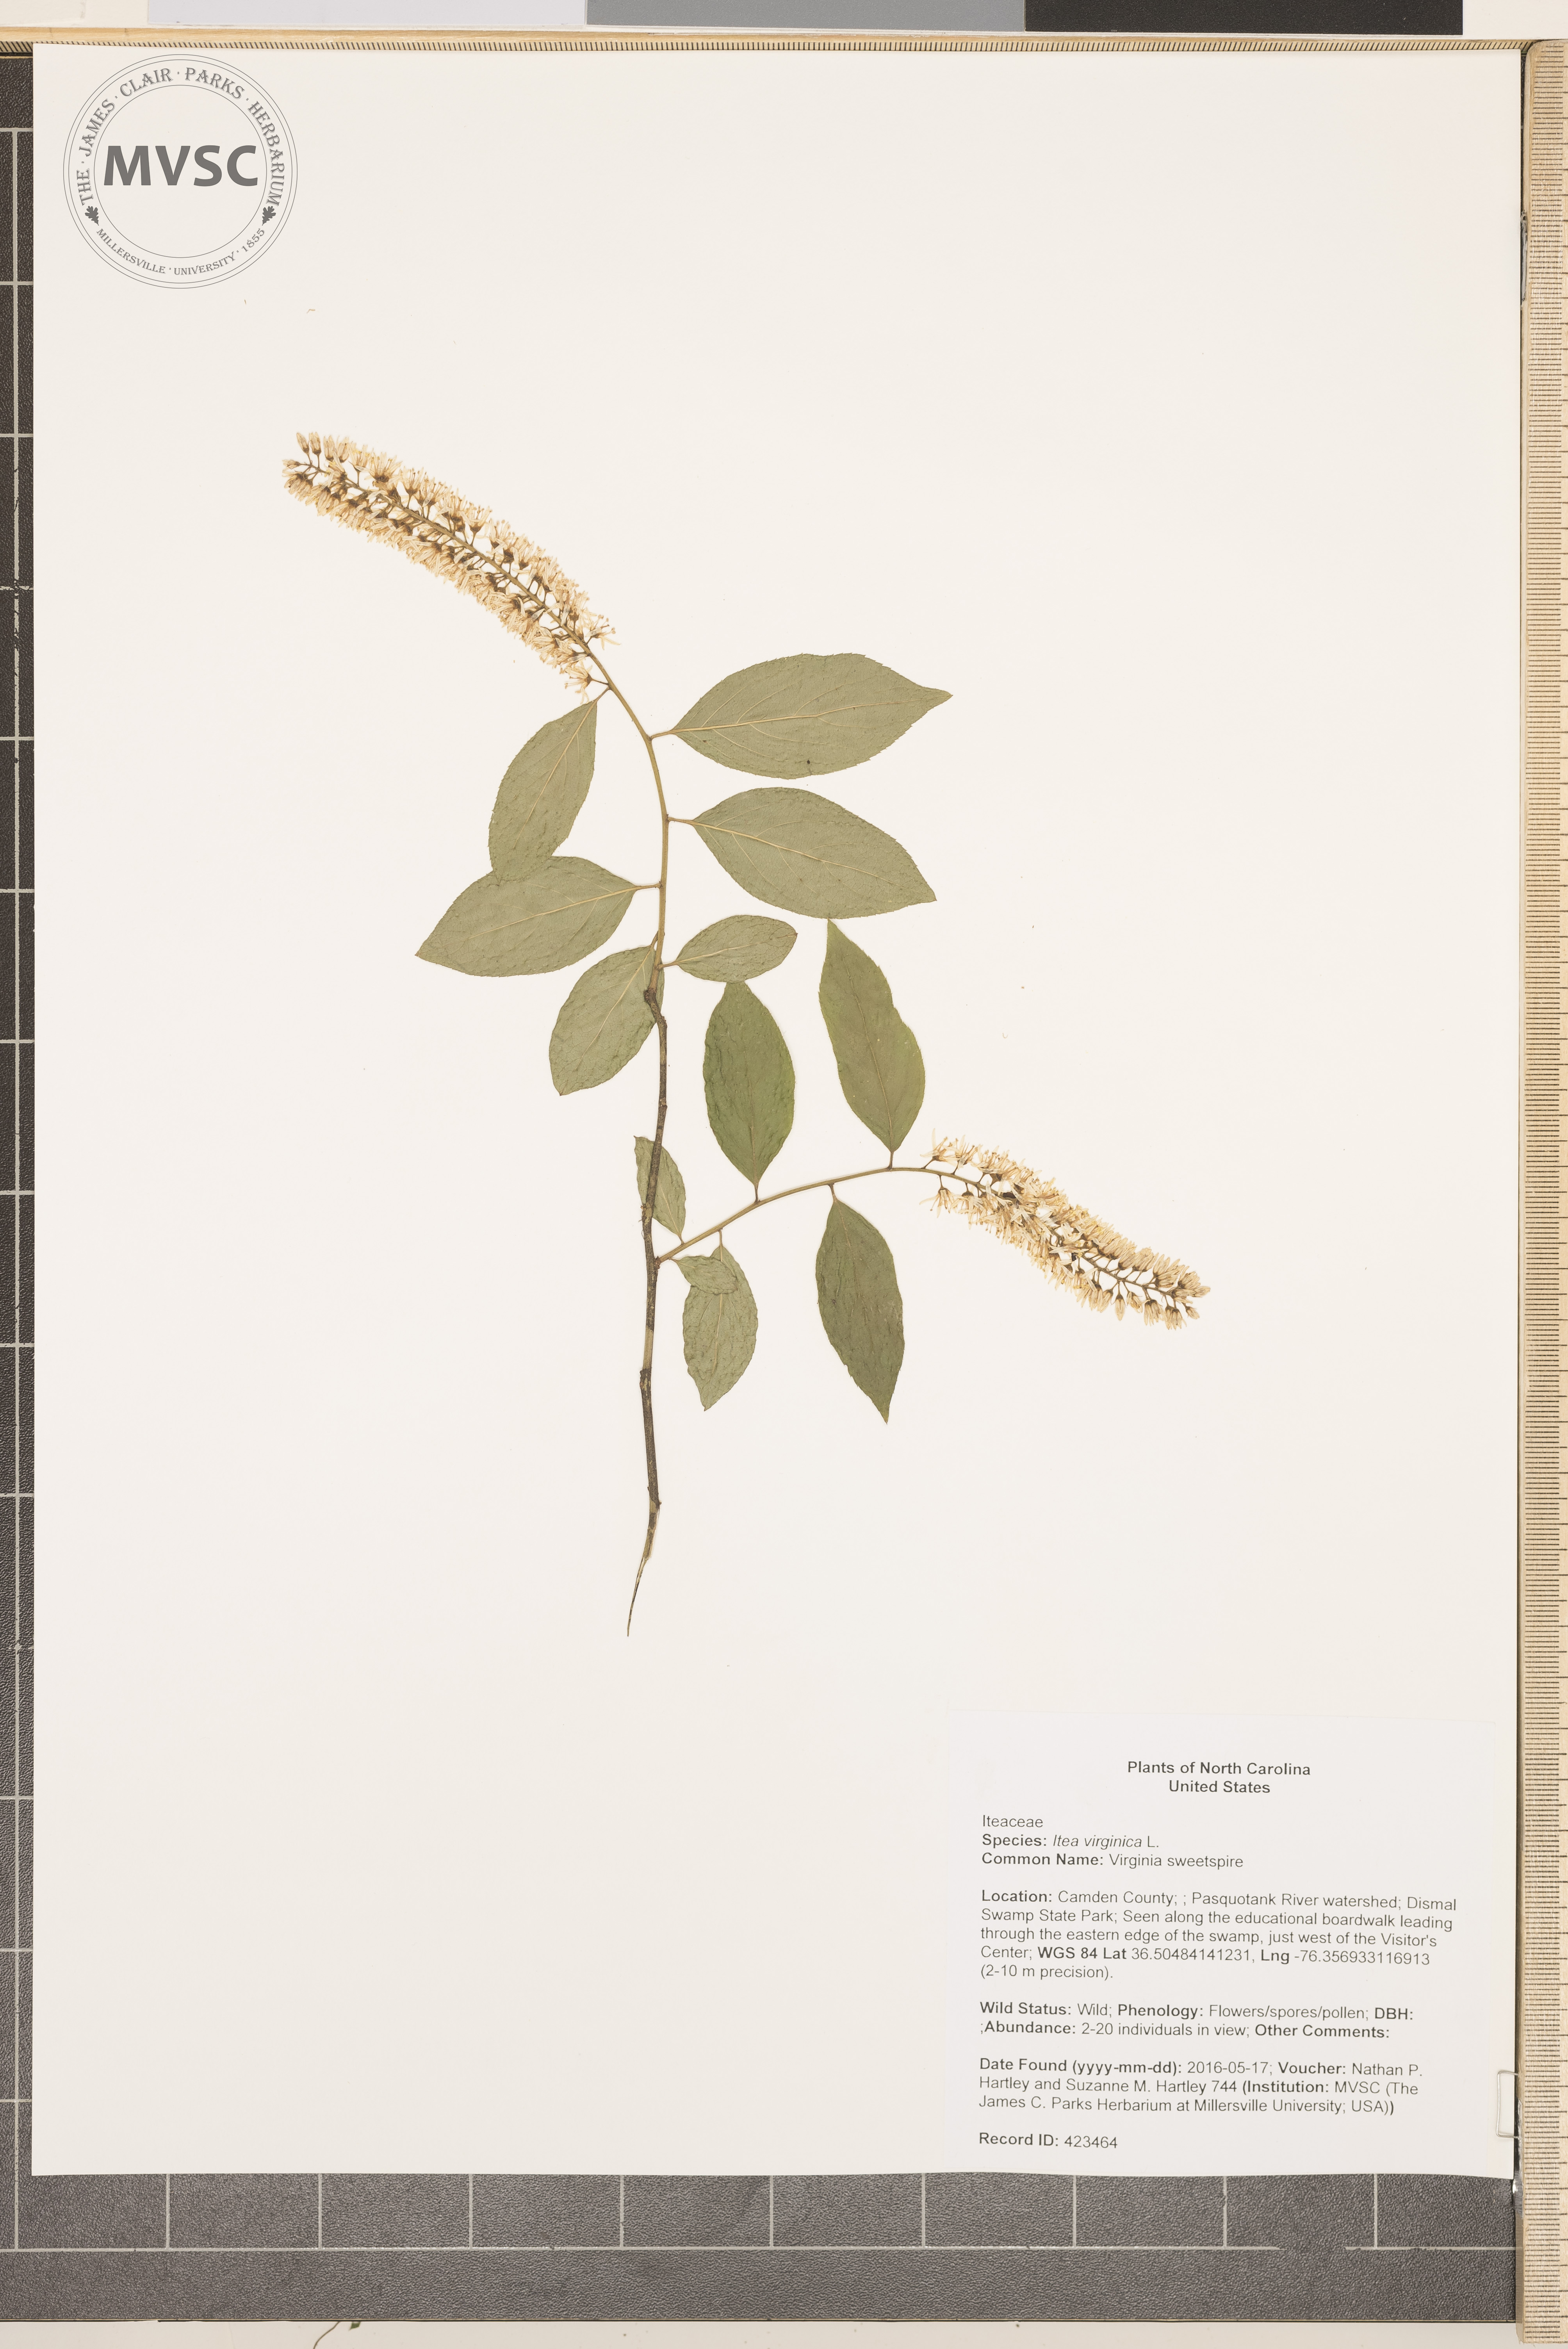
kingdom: Plantae
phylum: Tracheophyta
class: Magnoliopsida
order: Saxifragales
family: Iteaceae
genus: Itea
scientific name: Itea virginica
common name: Virginia sweetspire
